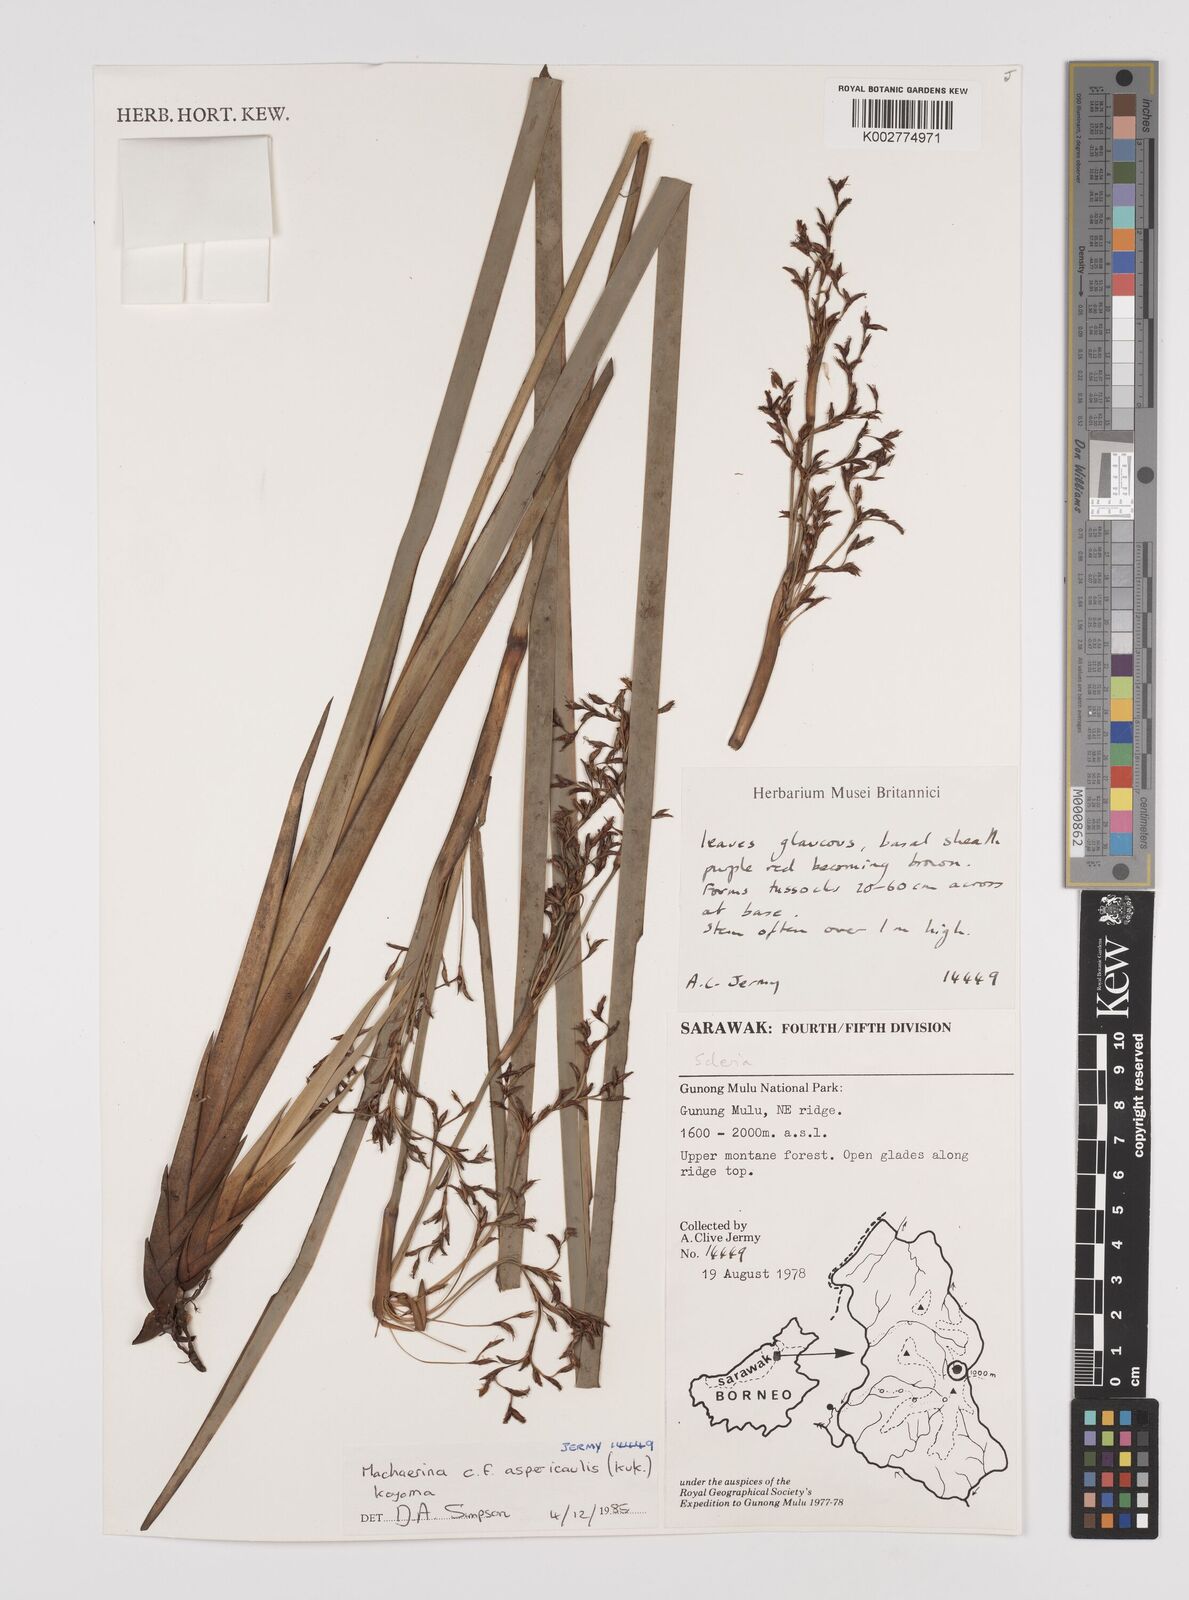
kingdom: Plantae
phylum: Tracheophyta
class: Liliopsida
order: Poales
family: Cyperaceae
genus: Machaerina
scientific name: Machaerina aspericaulis
